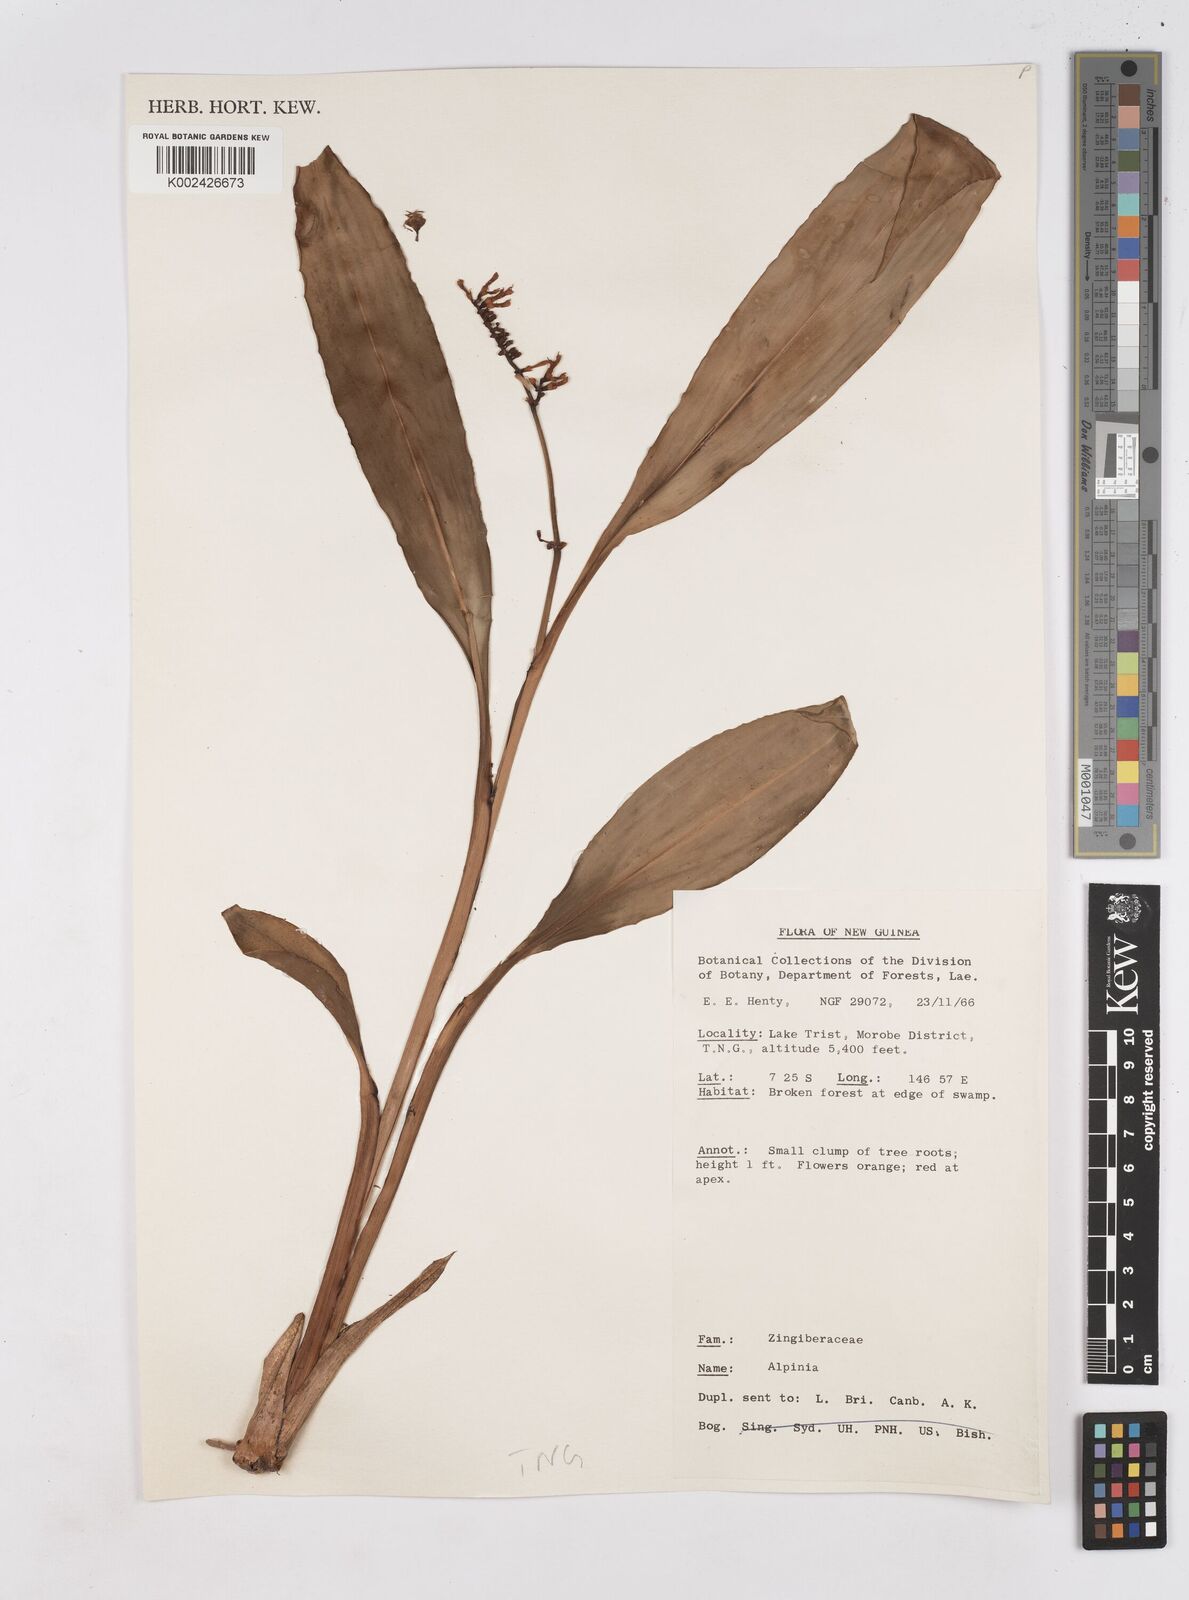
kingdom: Plantae
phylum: Tracheophyta
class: Liliopsida
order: Zingiberales
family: Zingiberaceae
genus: Riedelia
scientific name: Riedelia
